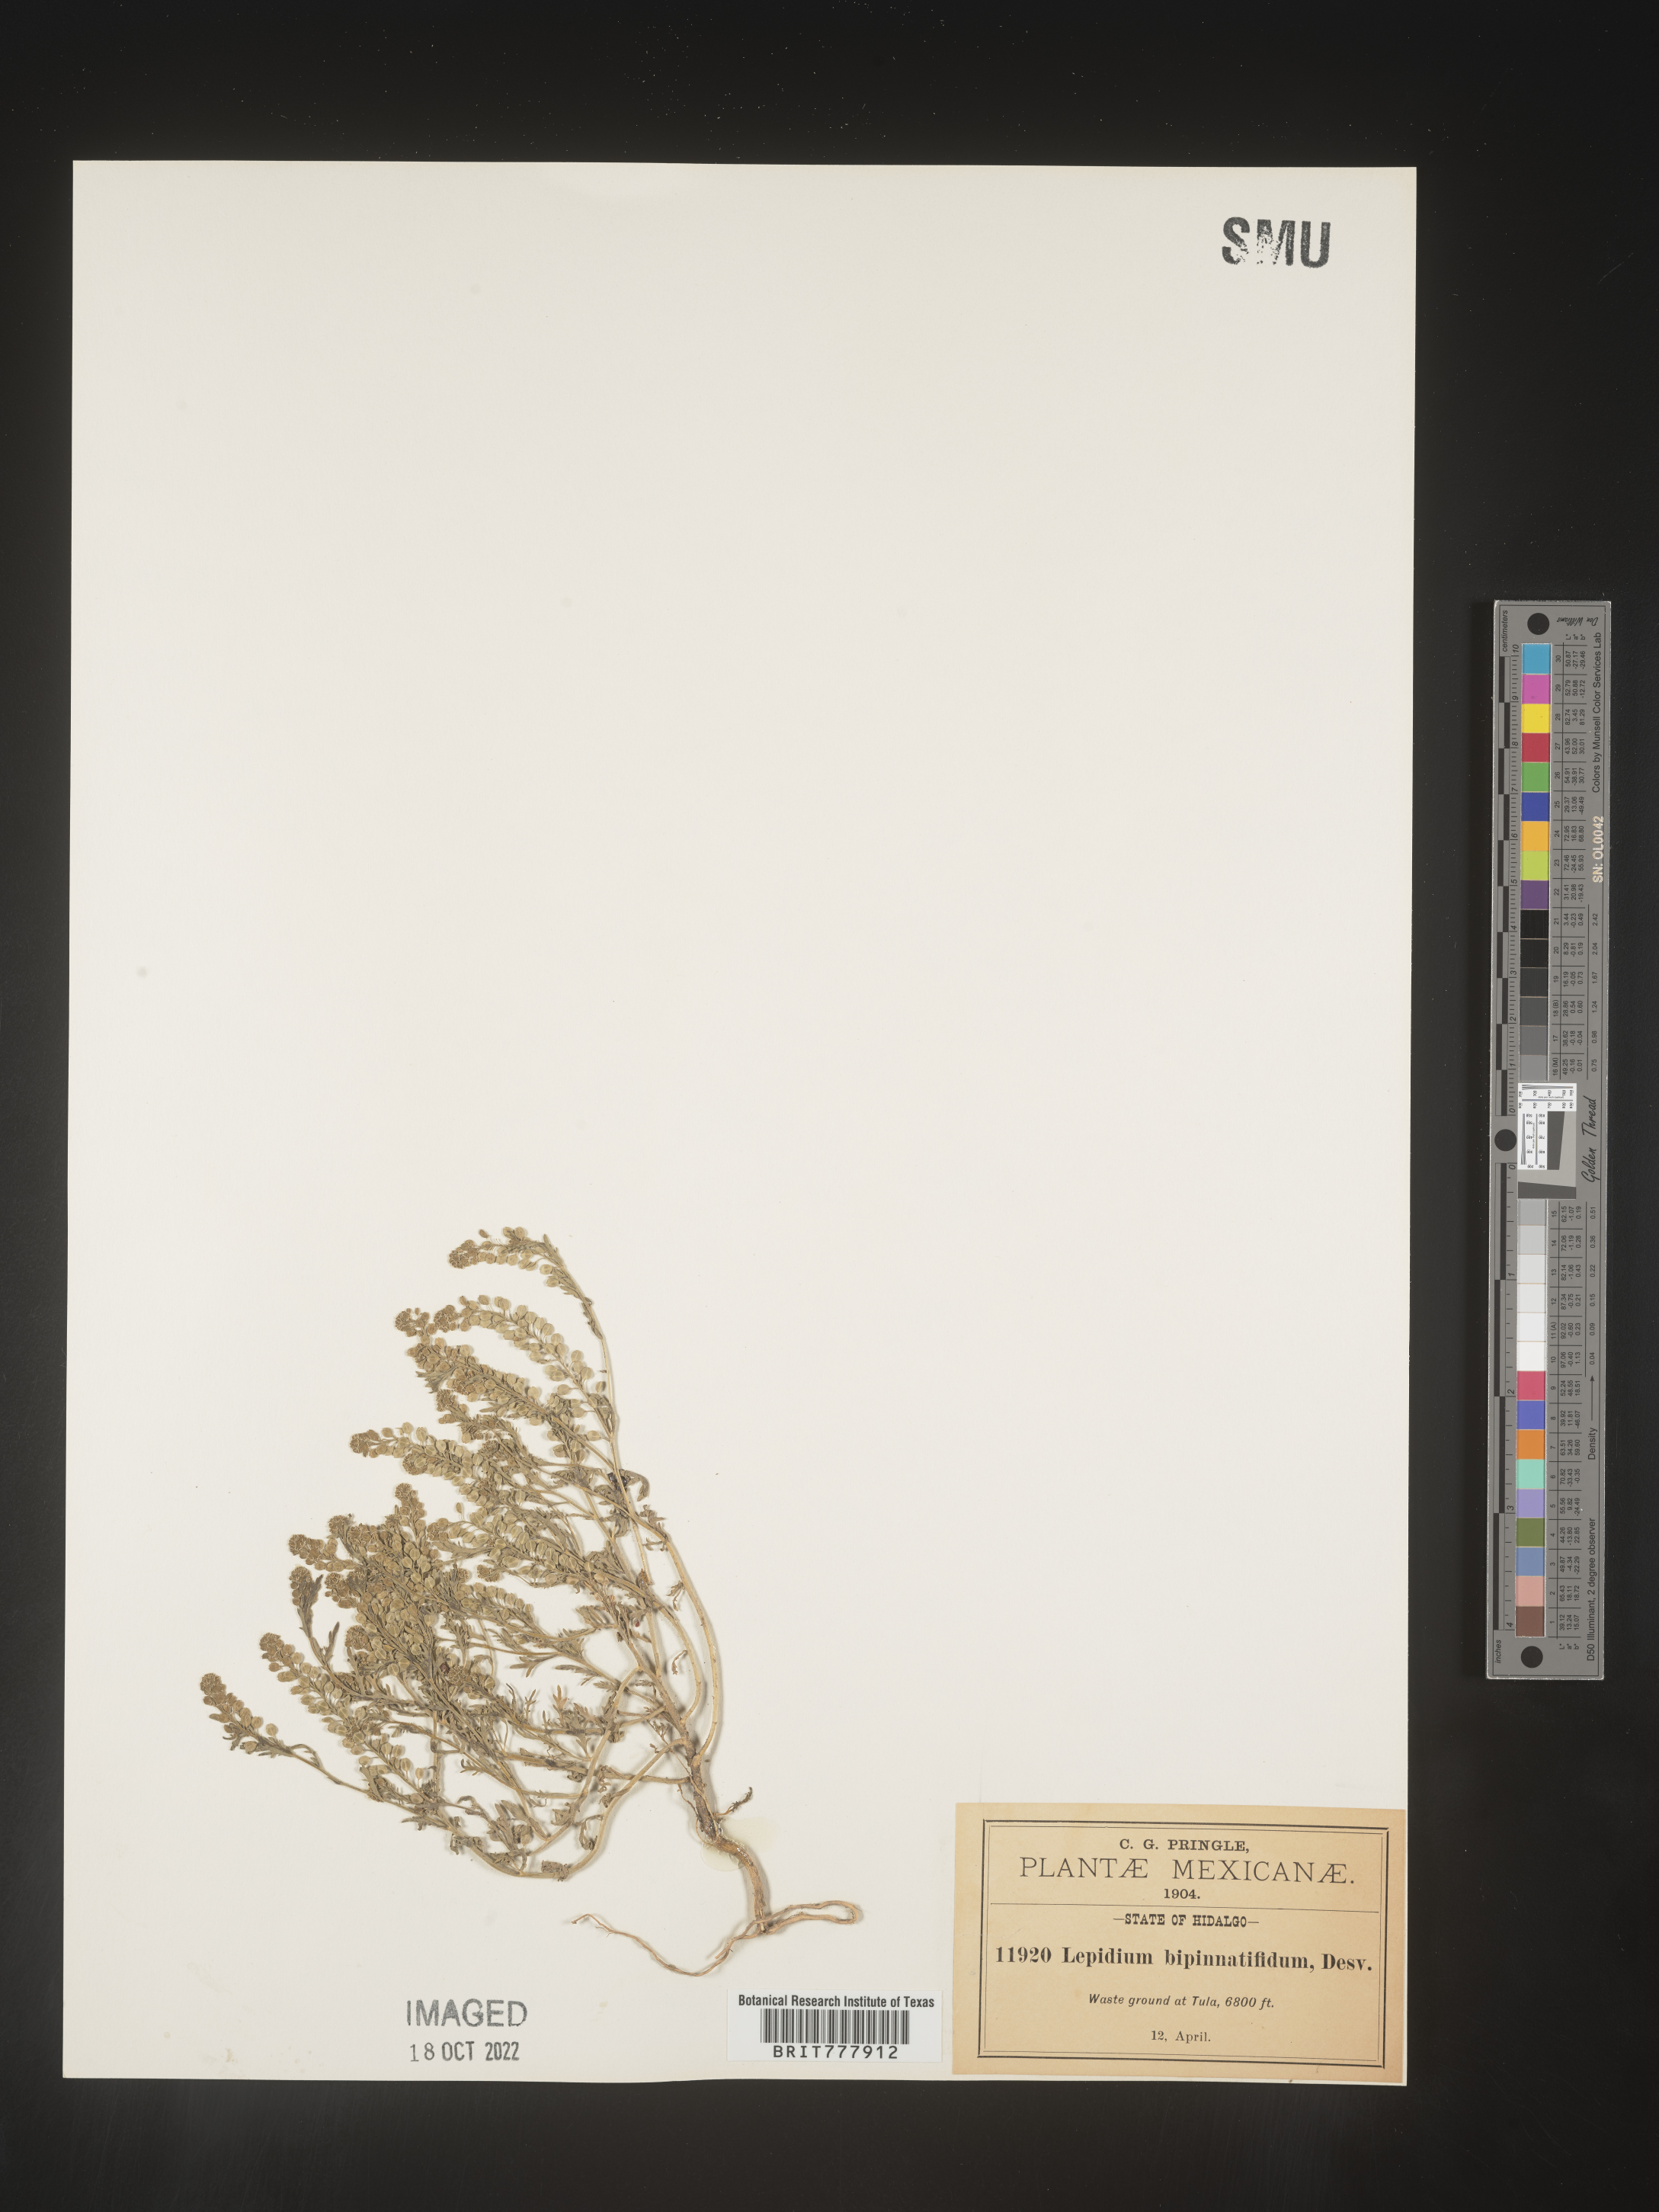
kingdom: Plantae
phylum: Tracheophyta
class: Magnoliopsida
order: Brassicales
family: Brassicaceae
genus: Lepidium
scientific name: Lepidium
